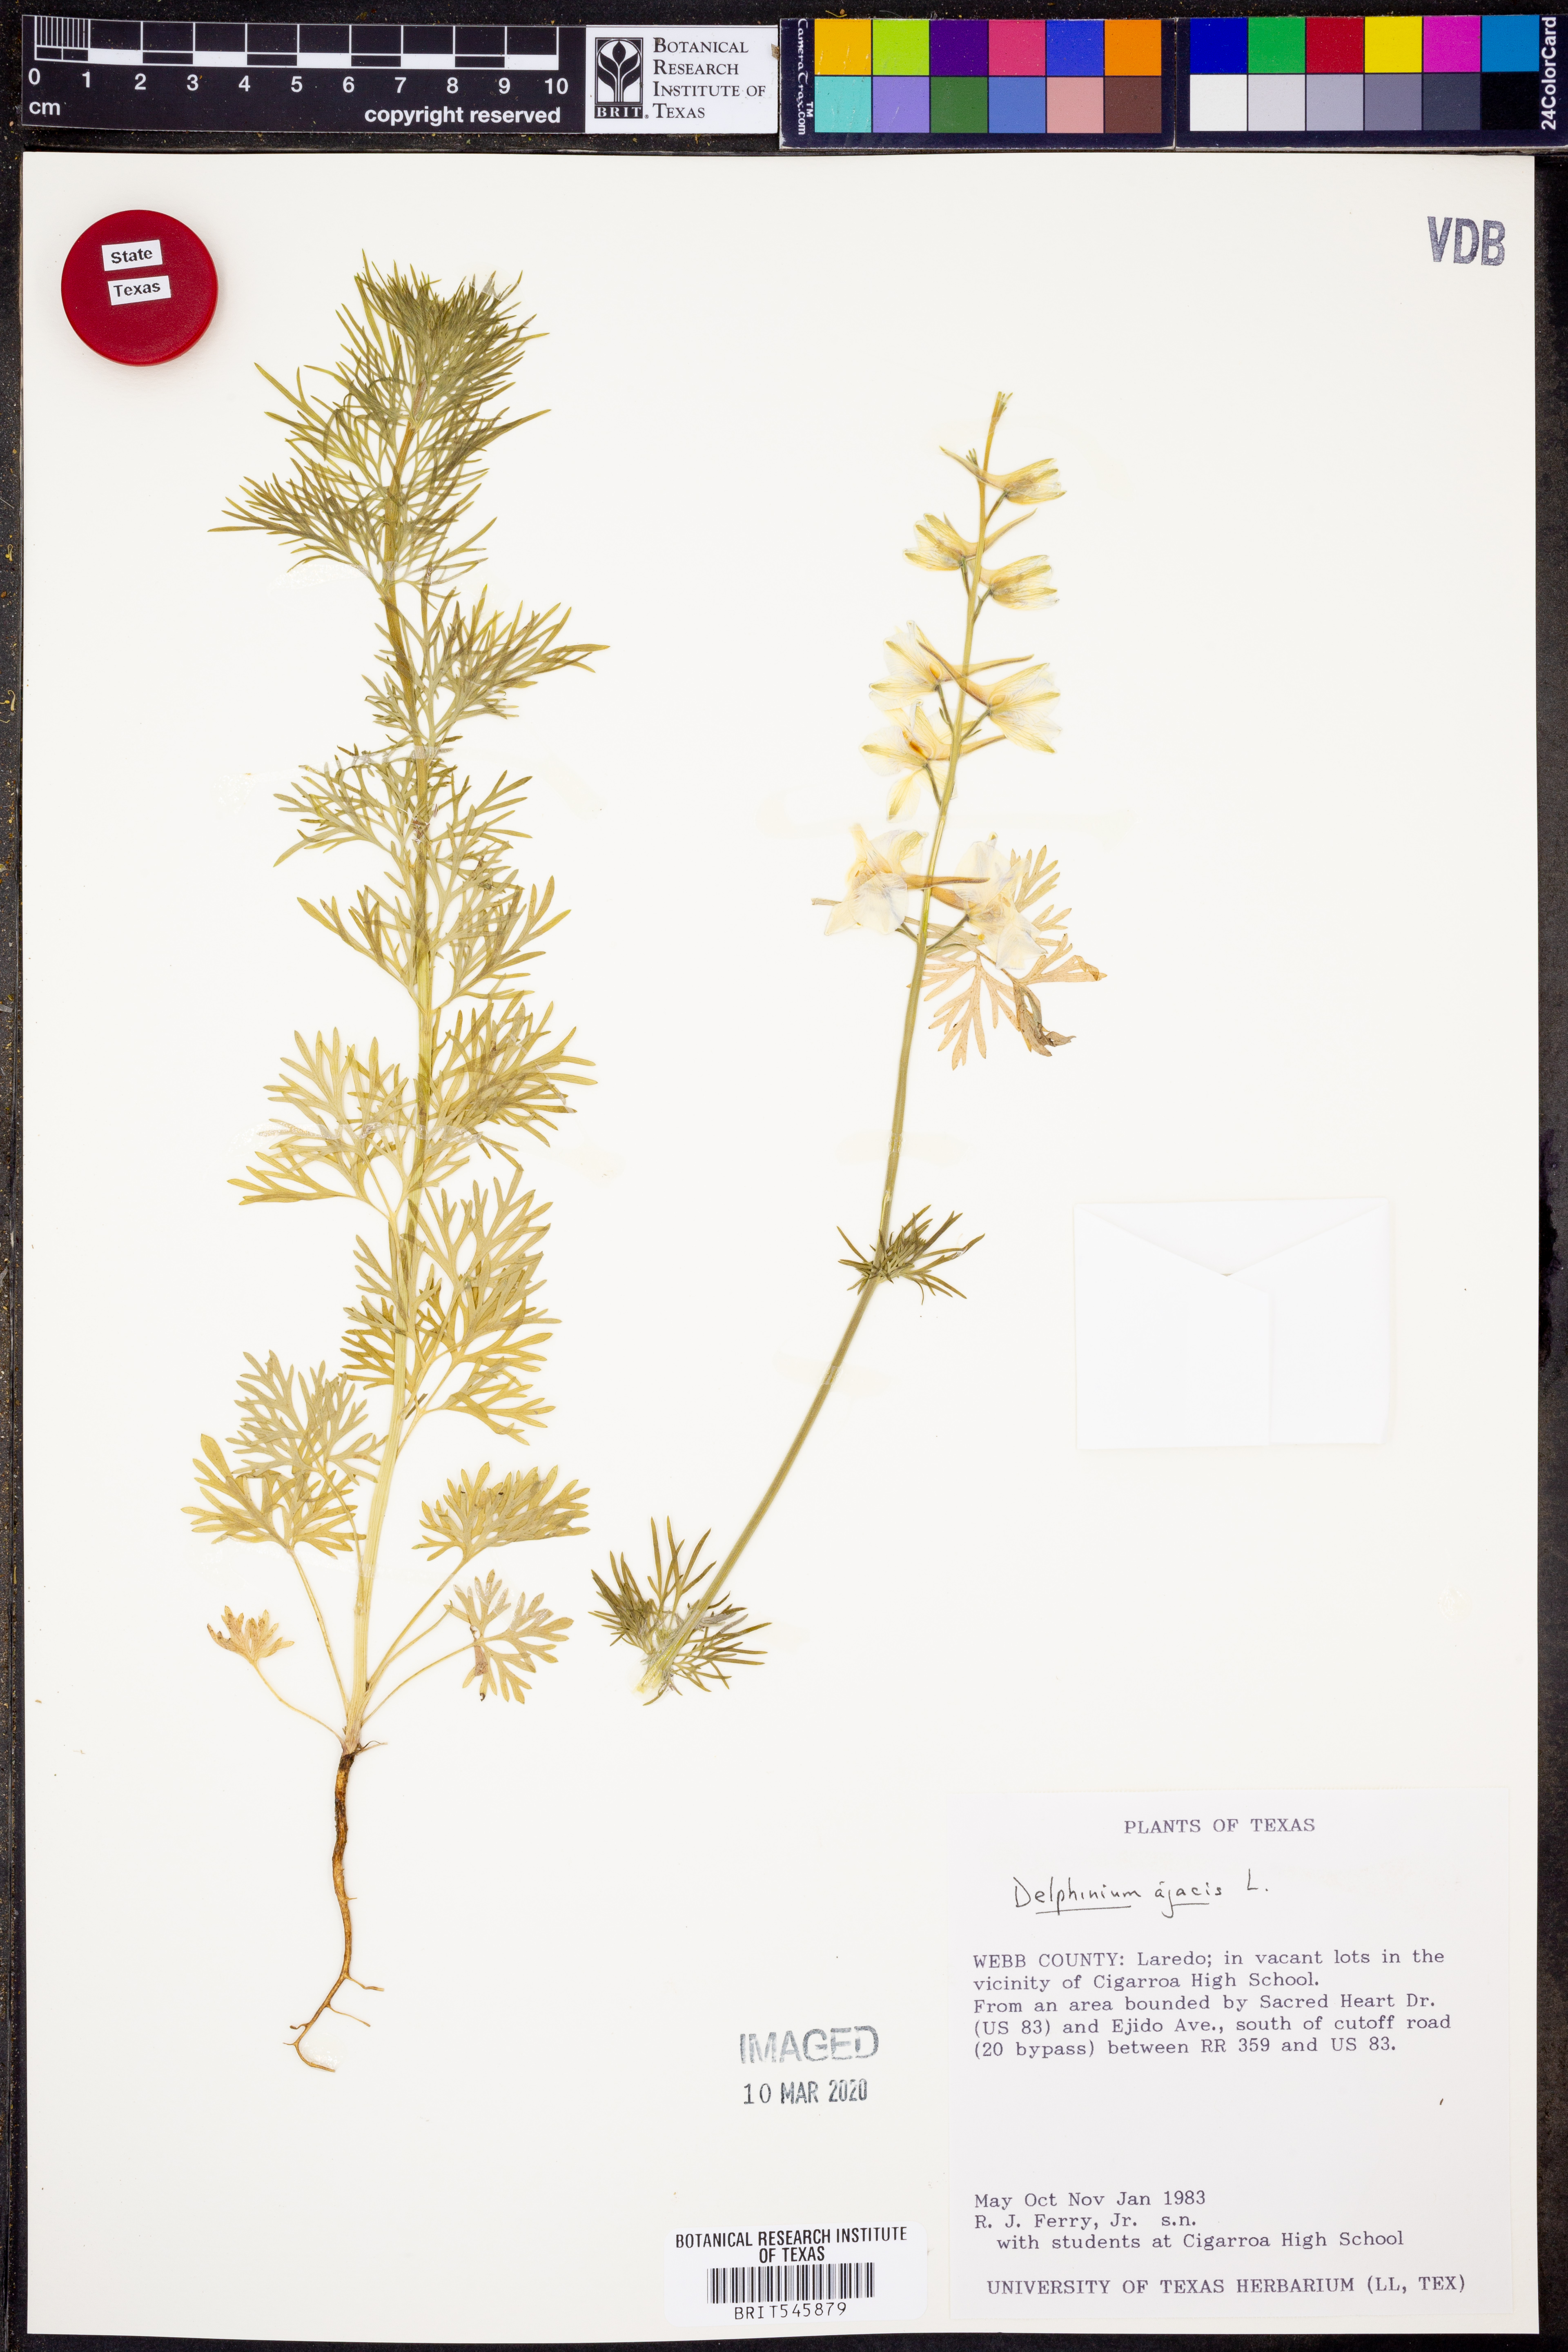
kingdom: Plantae
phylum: Tracheophyta
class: Magnoliopsida
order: Ranunculales
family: Ranunculaceae
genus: Delphinium
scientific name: Delphinium ajacis
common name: Doubtful knight's-spur
